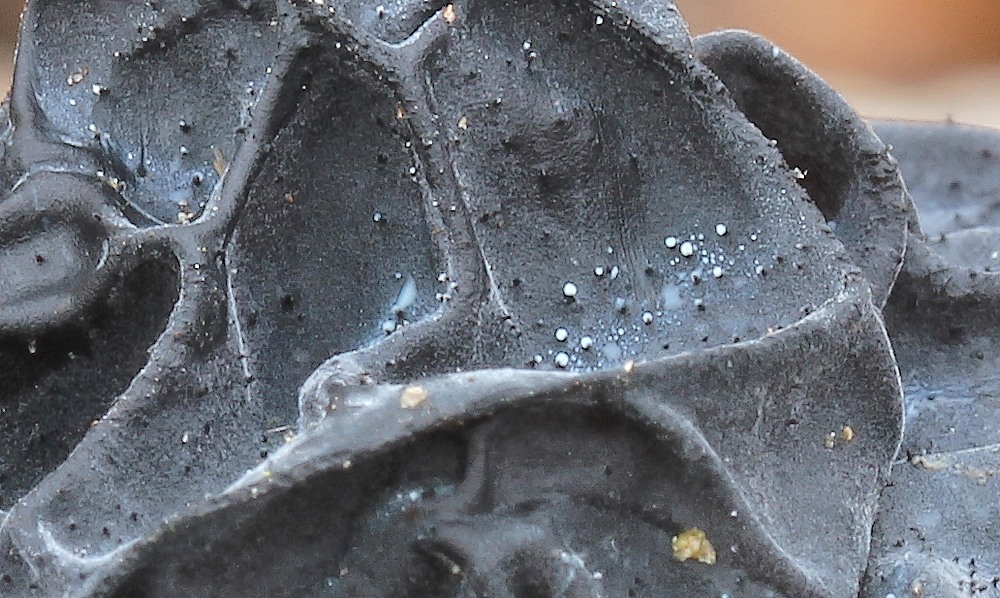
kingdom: Fungi
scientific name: Fungi
